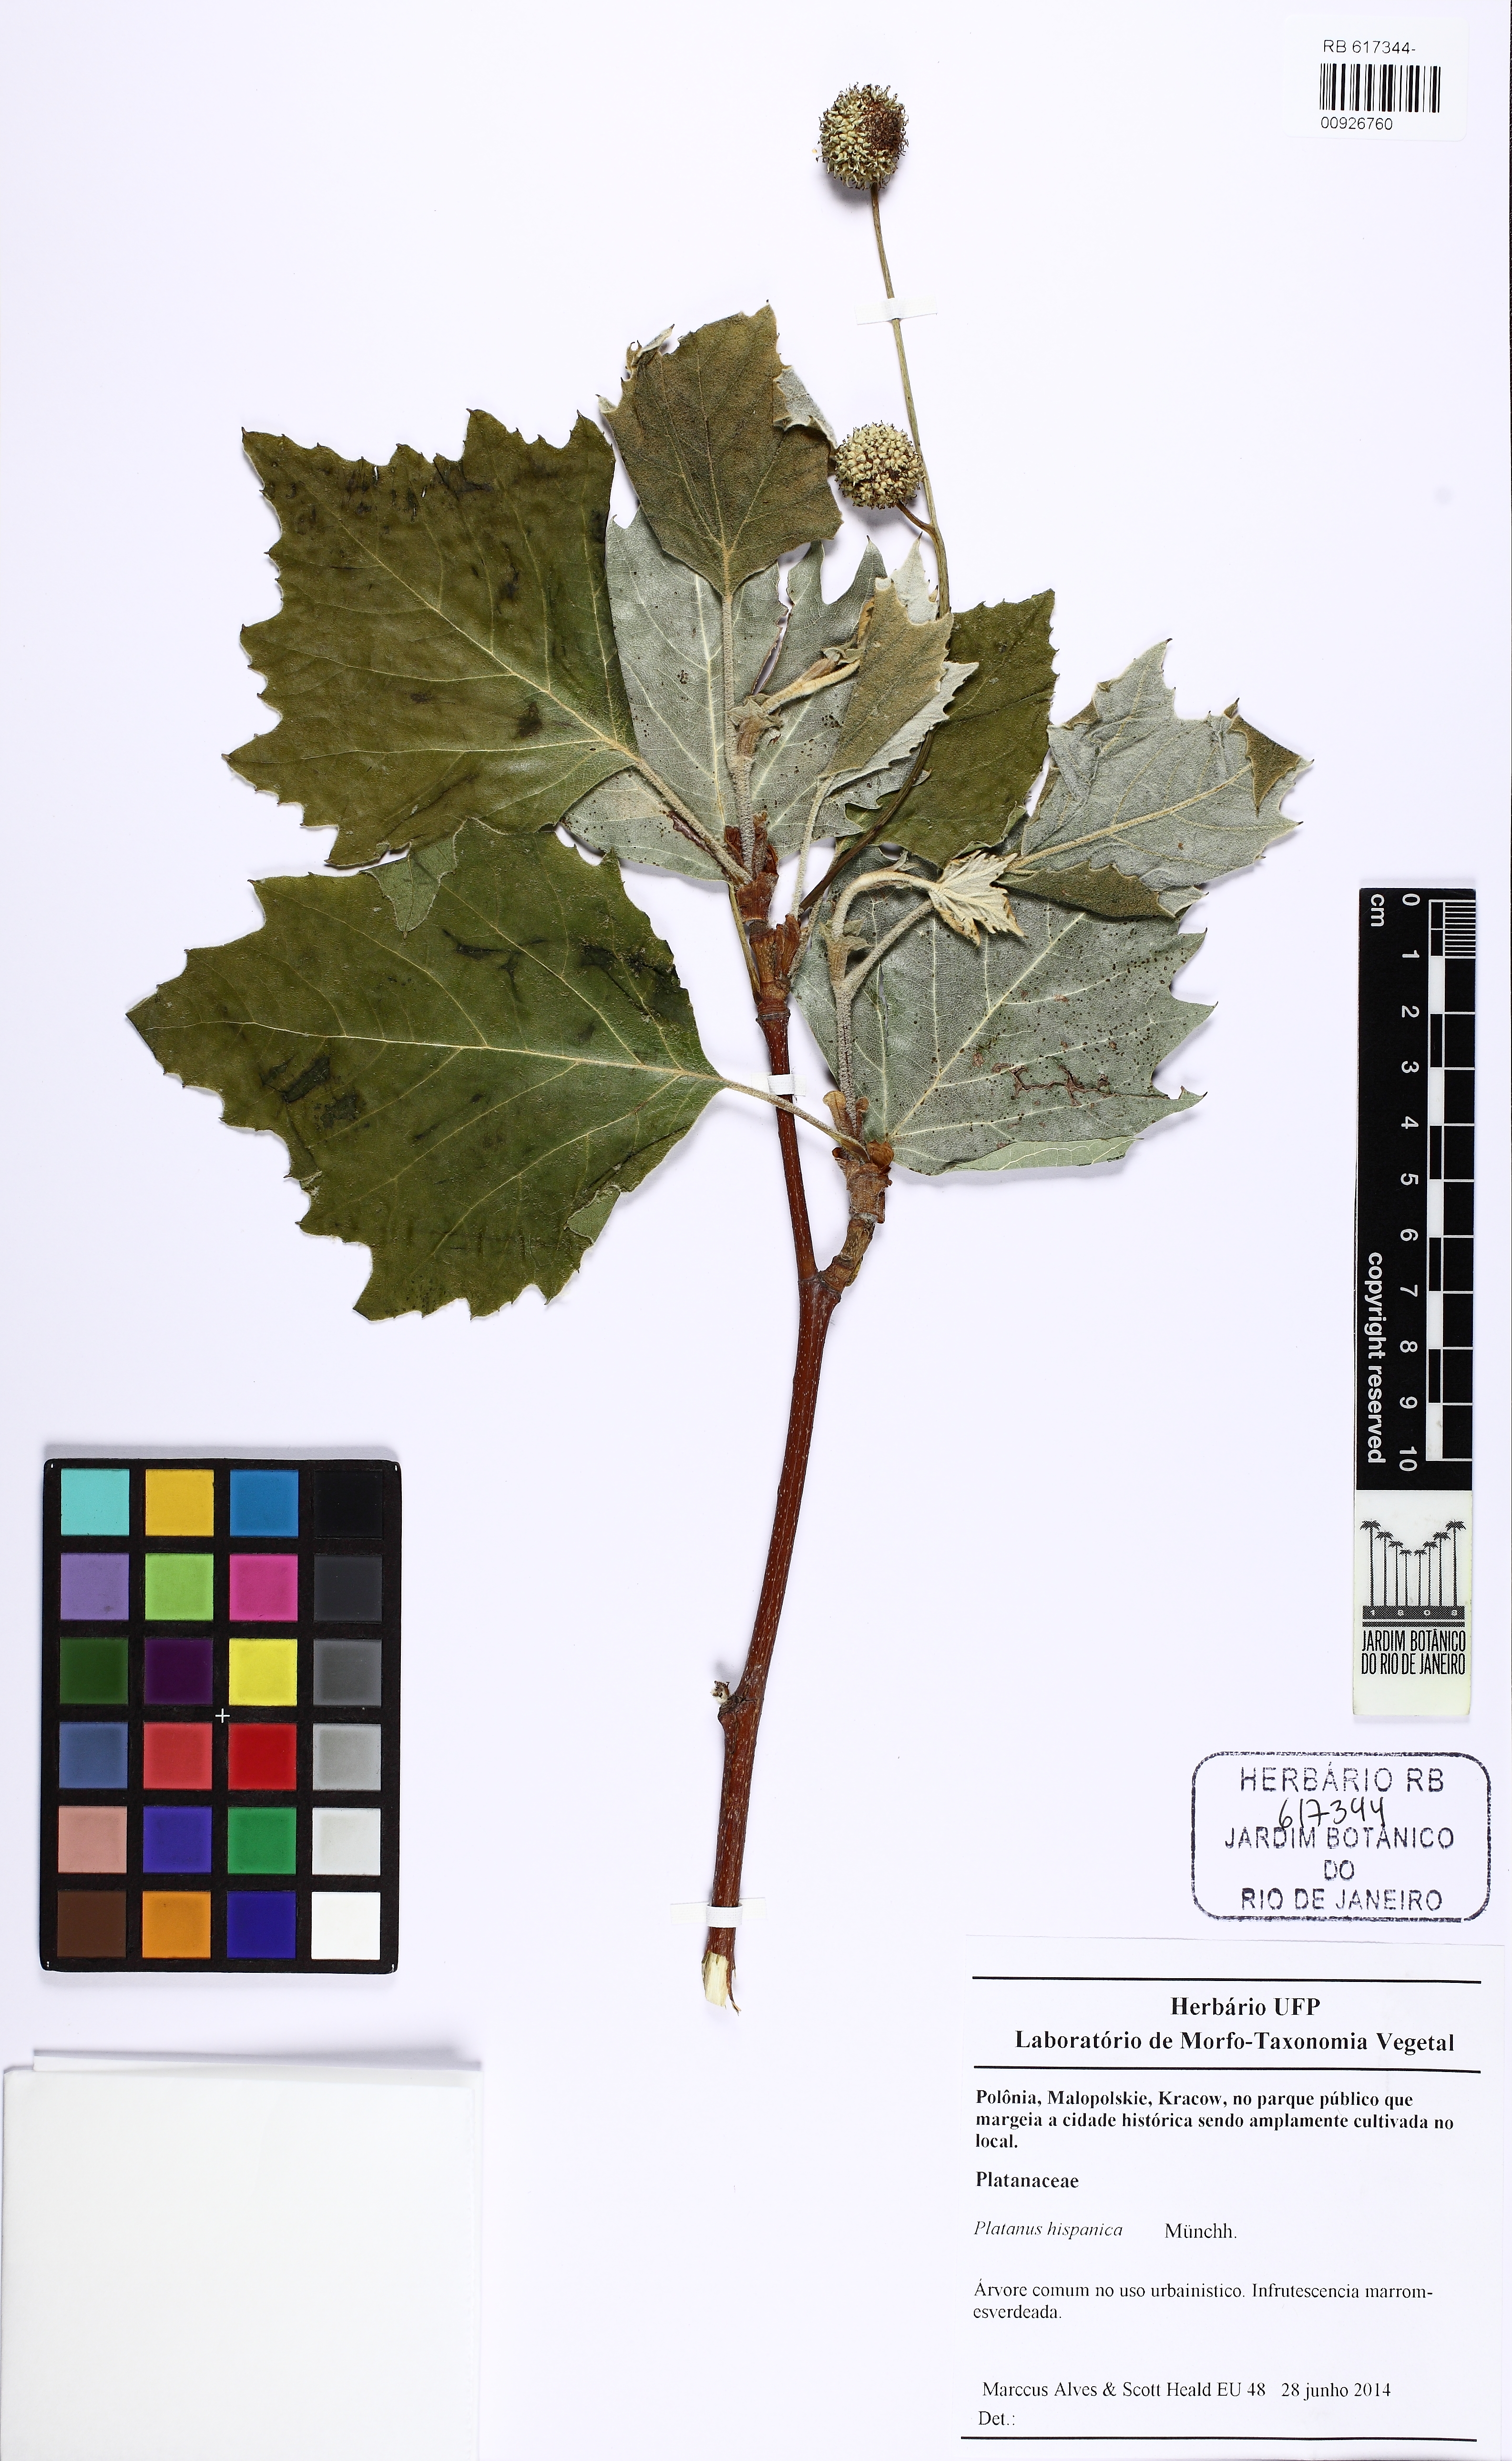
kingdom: Plantae
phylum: Tracheophyta
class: Magnoliopsida
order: Proteales
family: Platanaceae
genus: Platanus
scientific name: Platanus hispanica
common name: London plane
